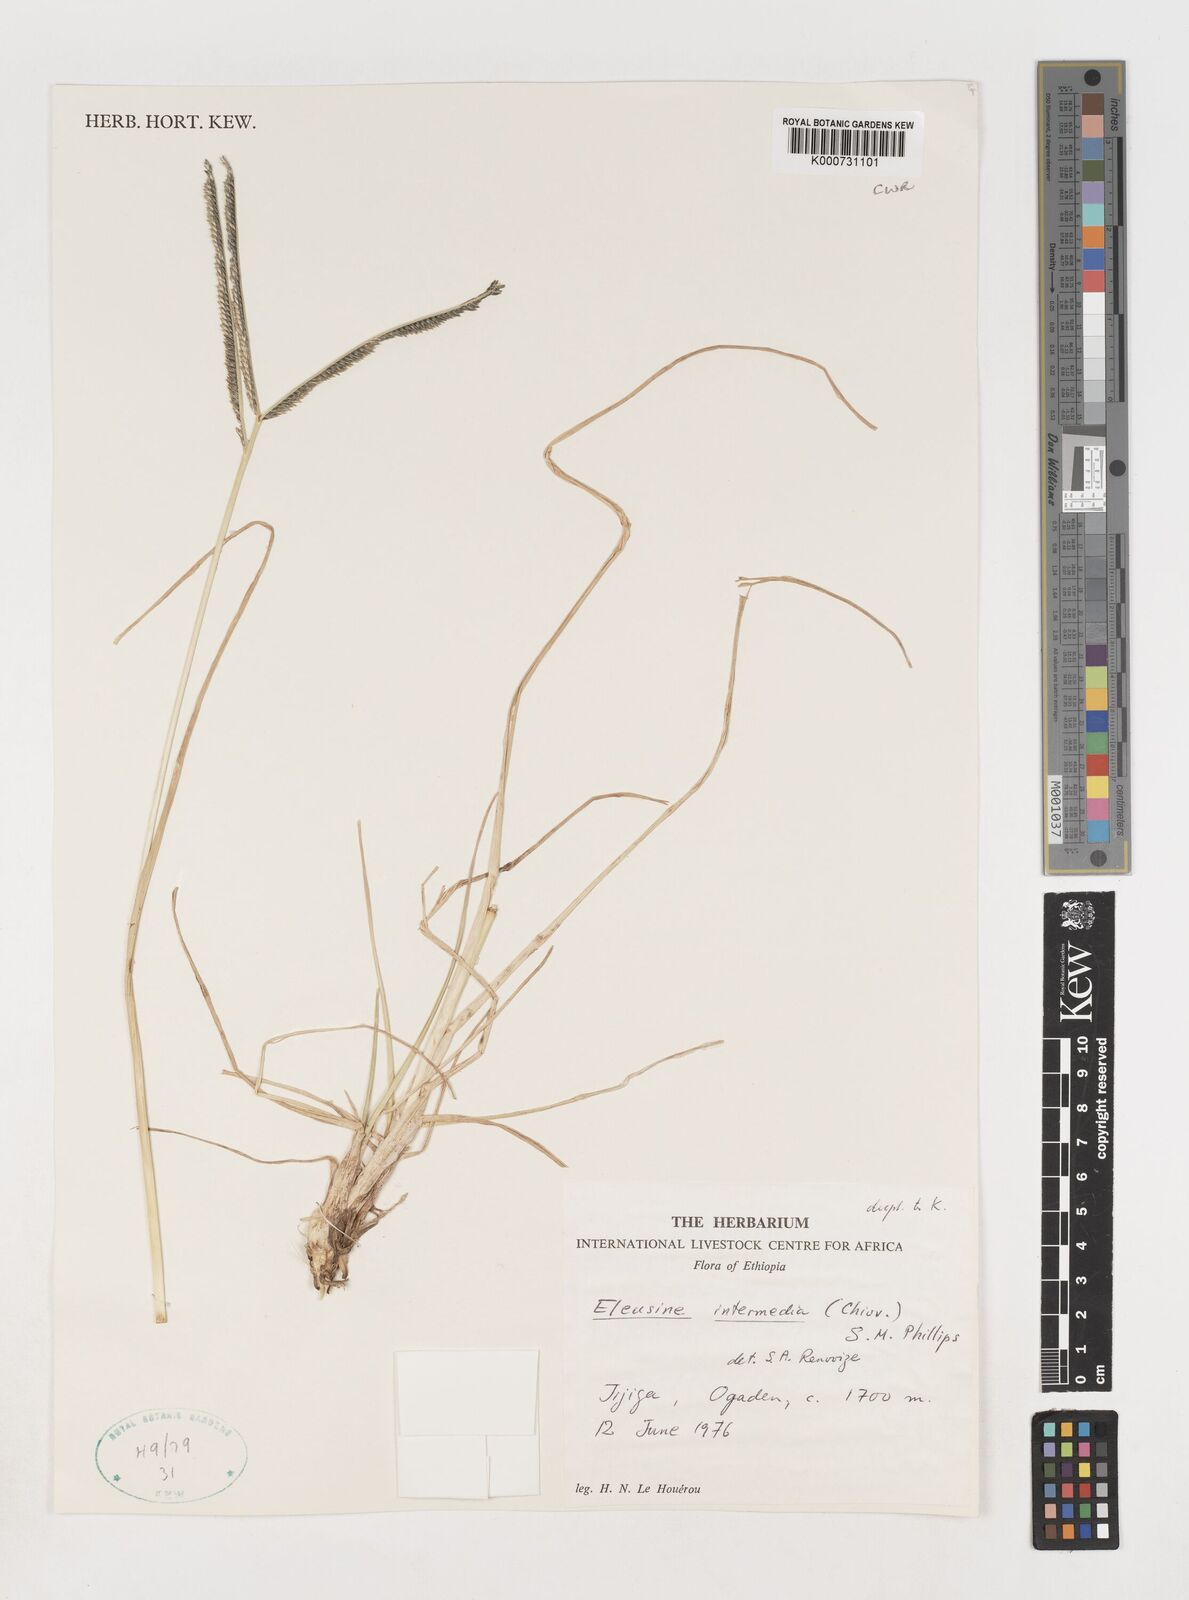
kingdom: Plantae
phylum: Tracheophyta
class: Liliopsida
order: Poales
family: Poaceae
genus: Eleusine
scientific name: Eleusine intermedia
